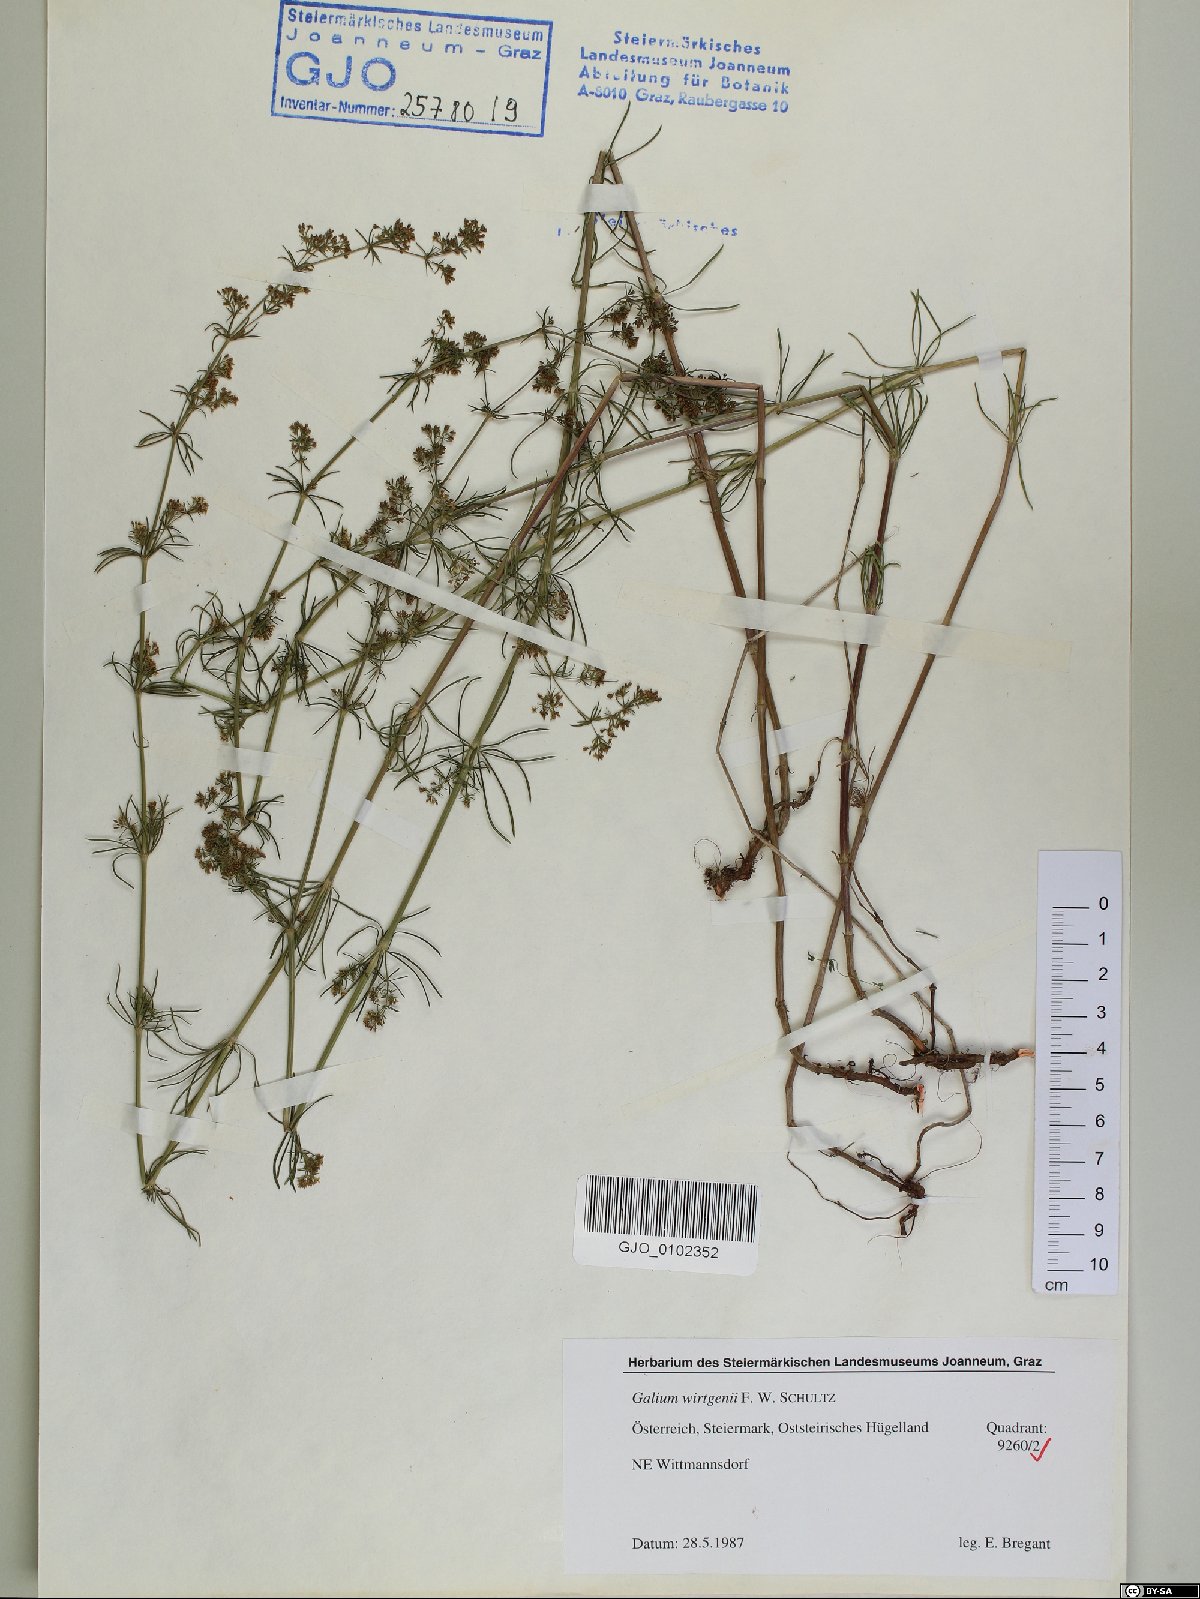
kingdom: Plantae
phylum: Tracheophyta
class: Magnoliopsida
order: Gentianales
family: Rubiaceae
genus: Galium
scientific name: Galium verum
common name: Lady's bedstraw
